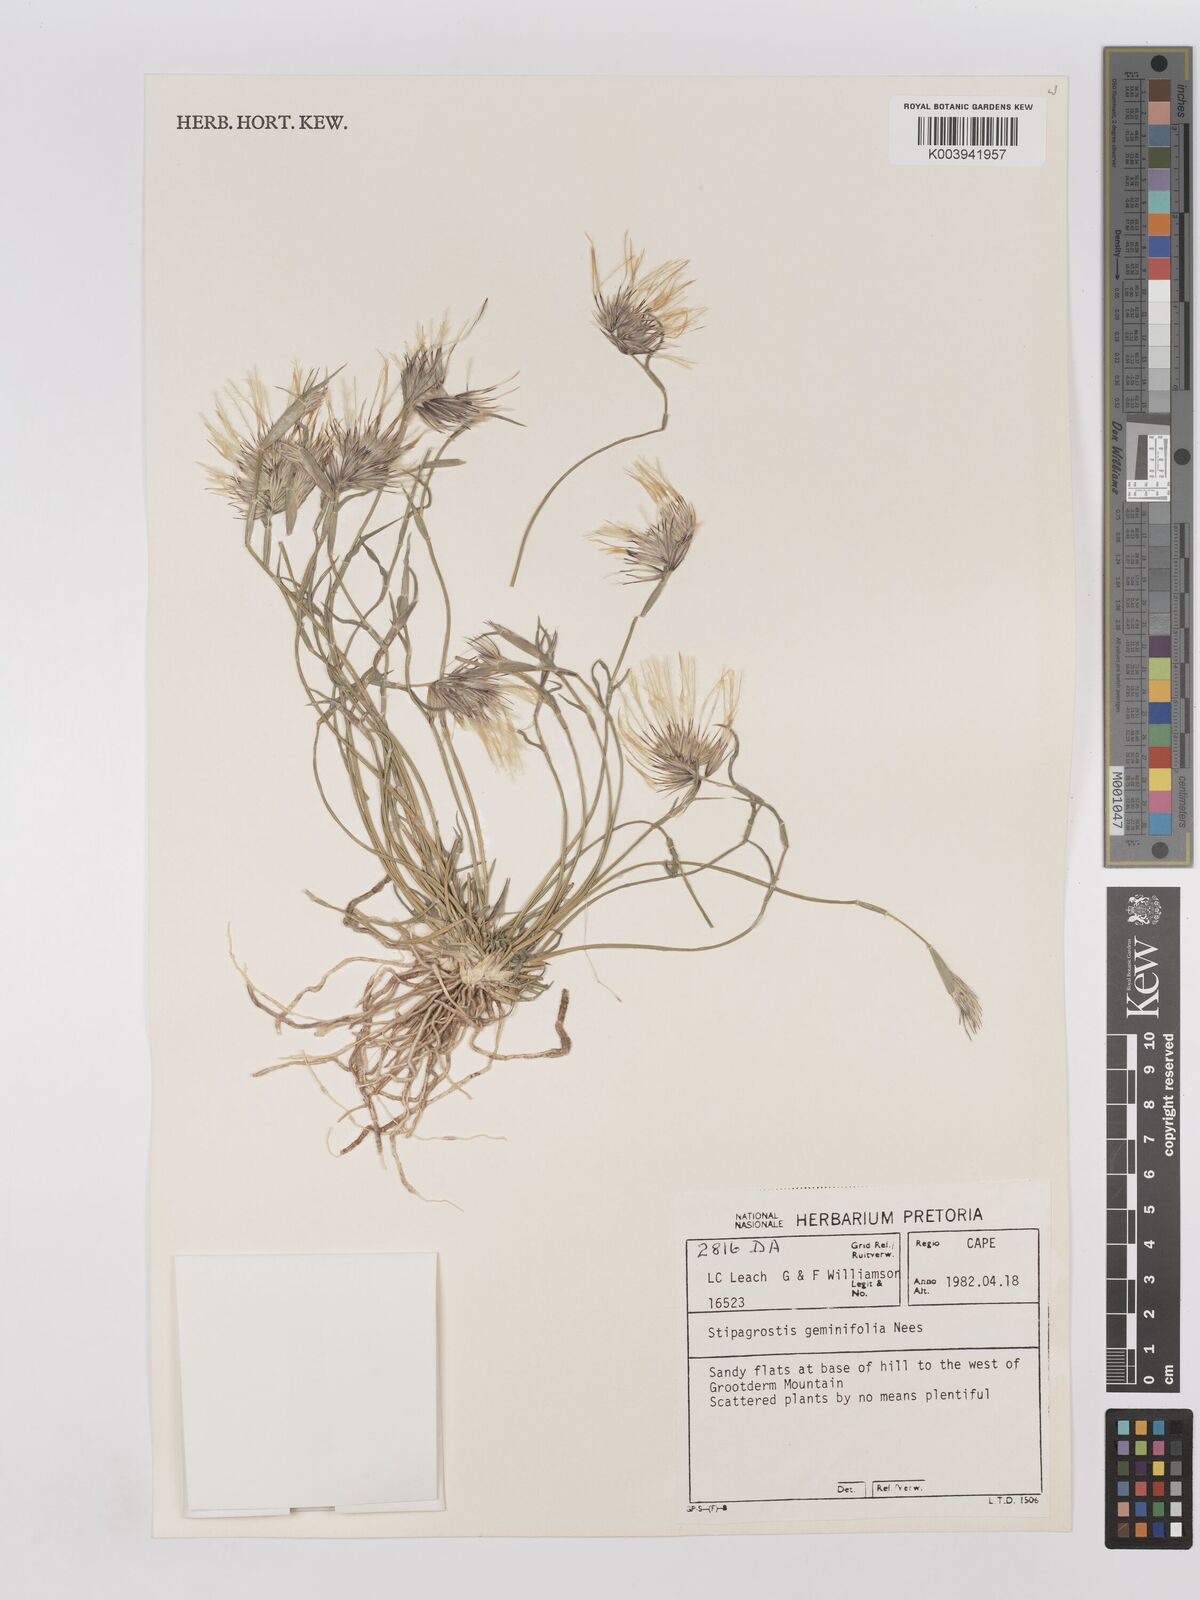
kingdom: Plantae
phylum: Tracheophyta
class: Liliopsida
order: Poales
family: Poaceae
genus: Stipagrostis
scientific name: Stipagrostis geminifolia
